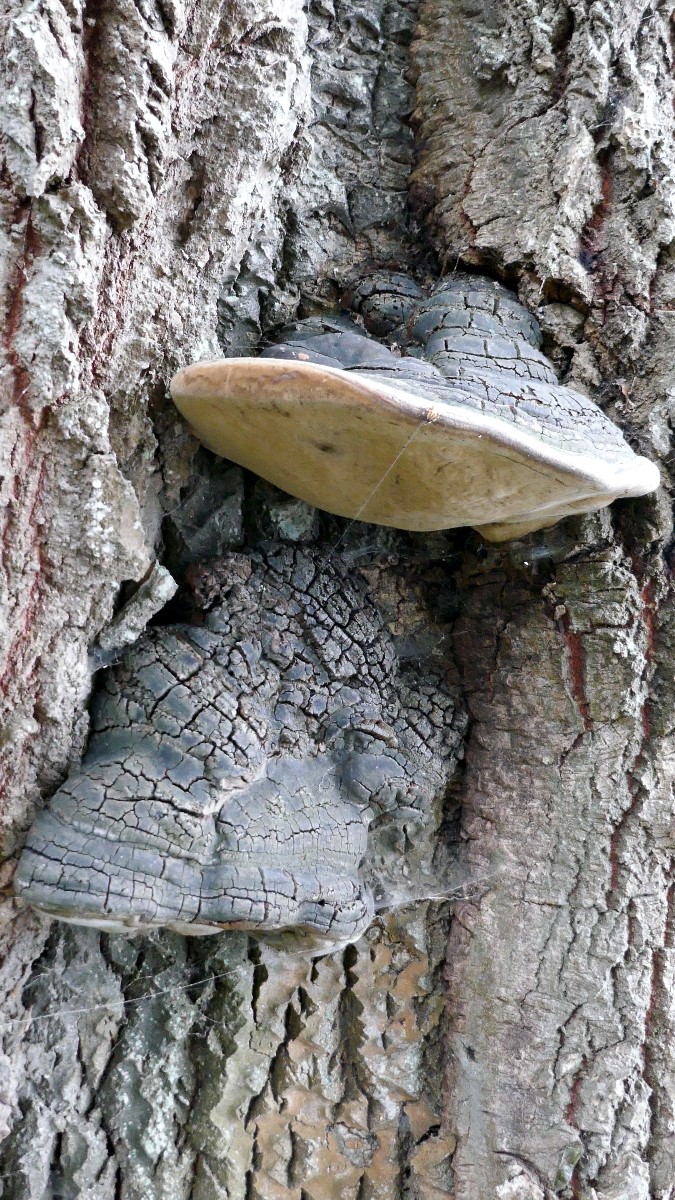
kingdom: Fungi
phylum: Basidiomycota
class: Agaricomycetes
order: Hymenochaetales
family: Hymenochaetaceae
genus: Phellinus
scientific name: Phellinus populicola
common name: poppel-ildporesvamp
